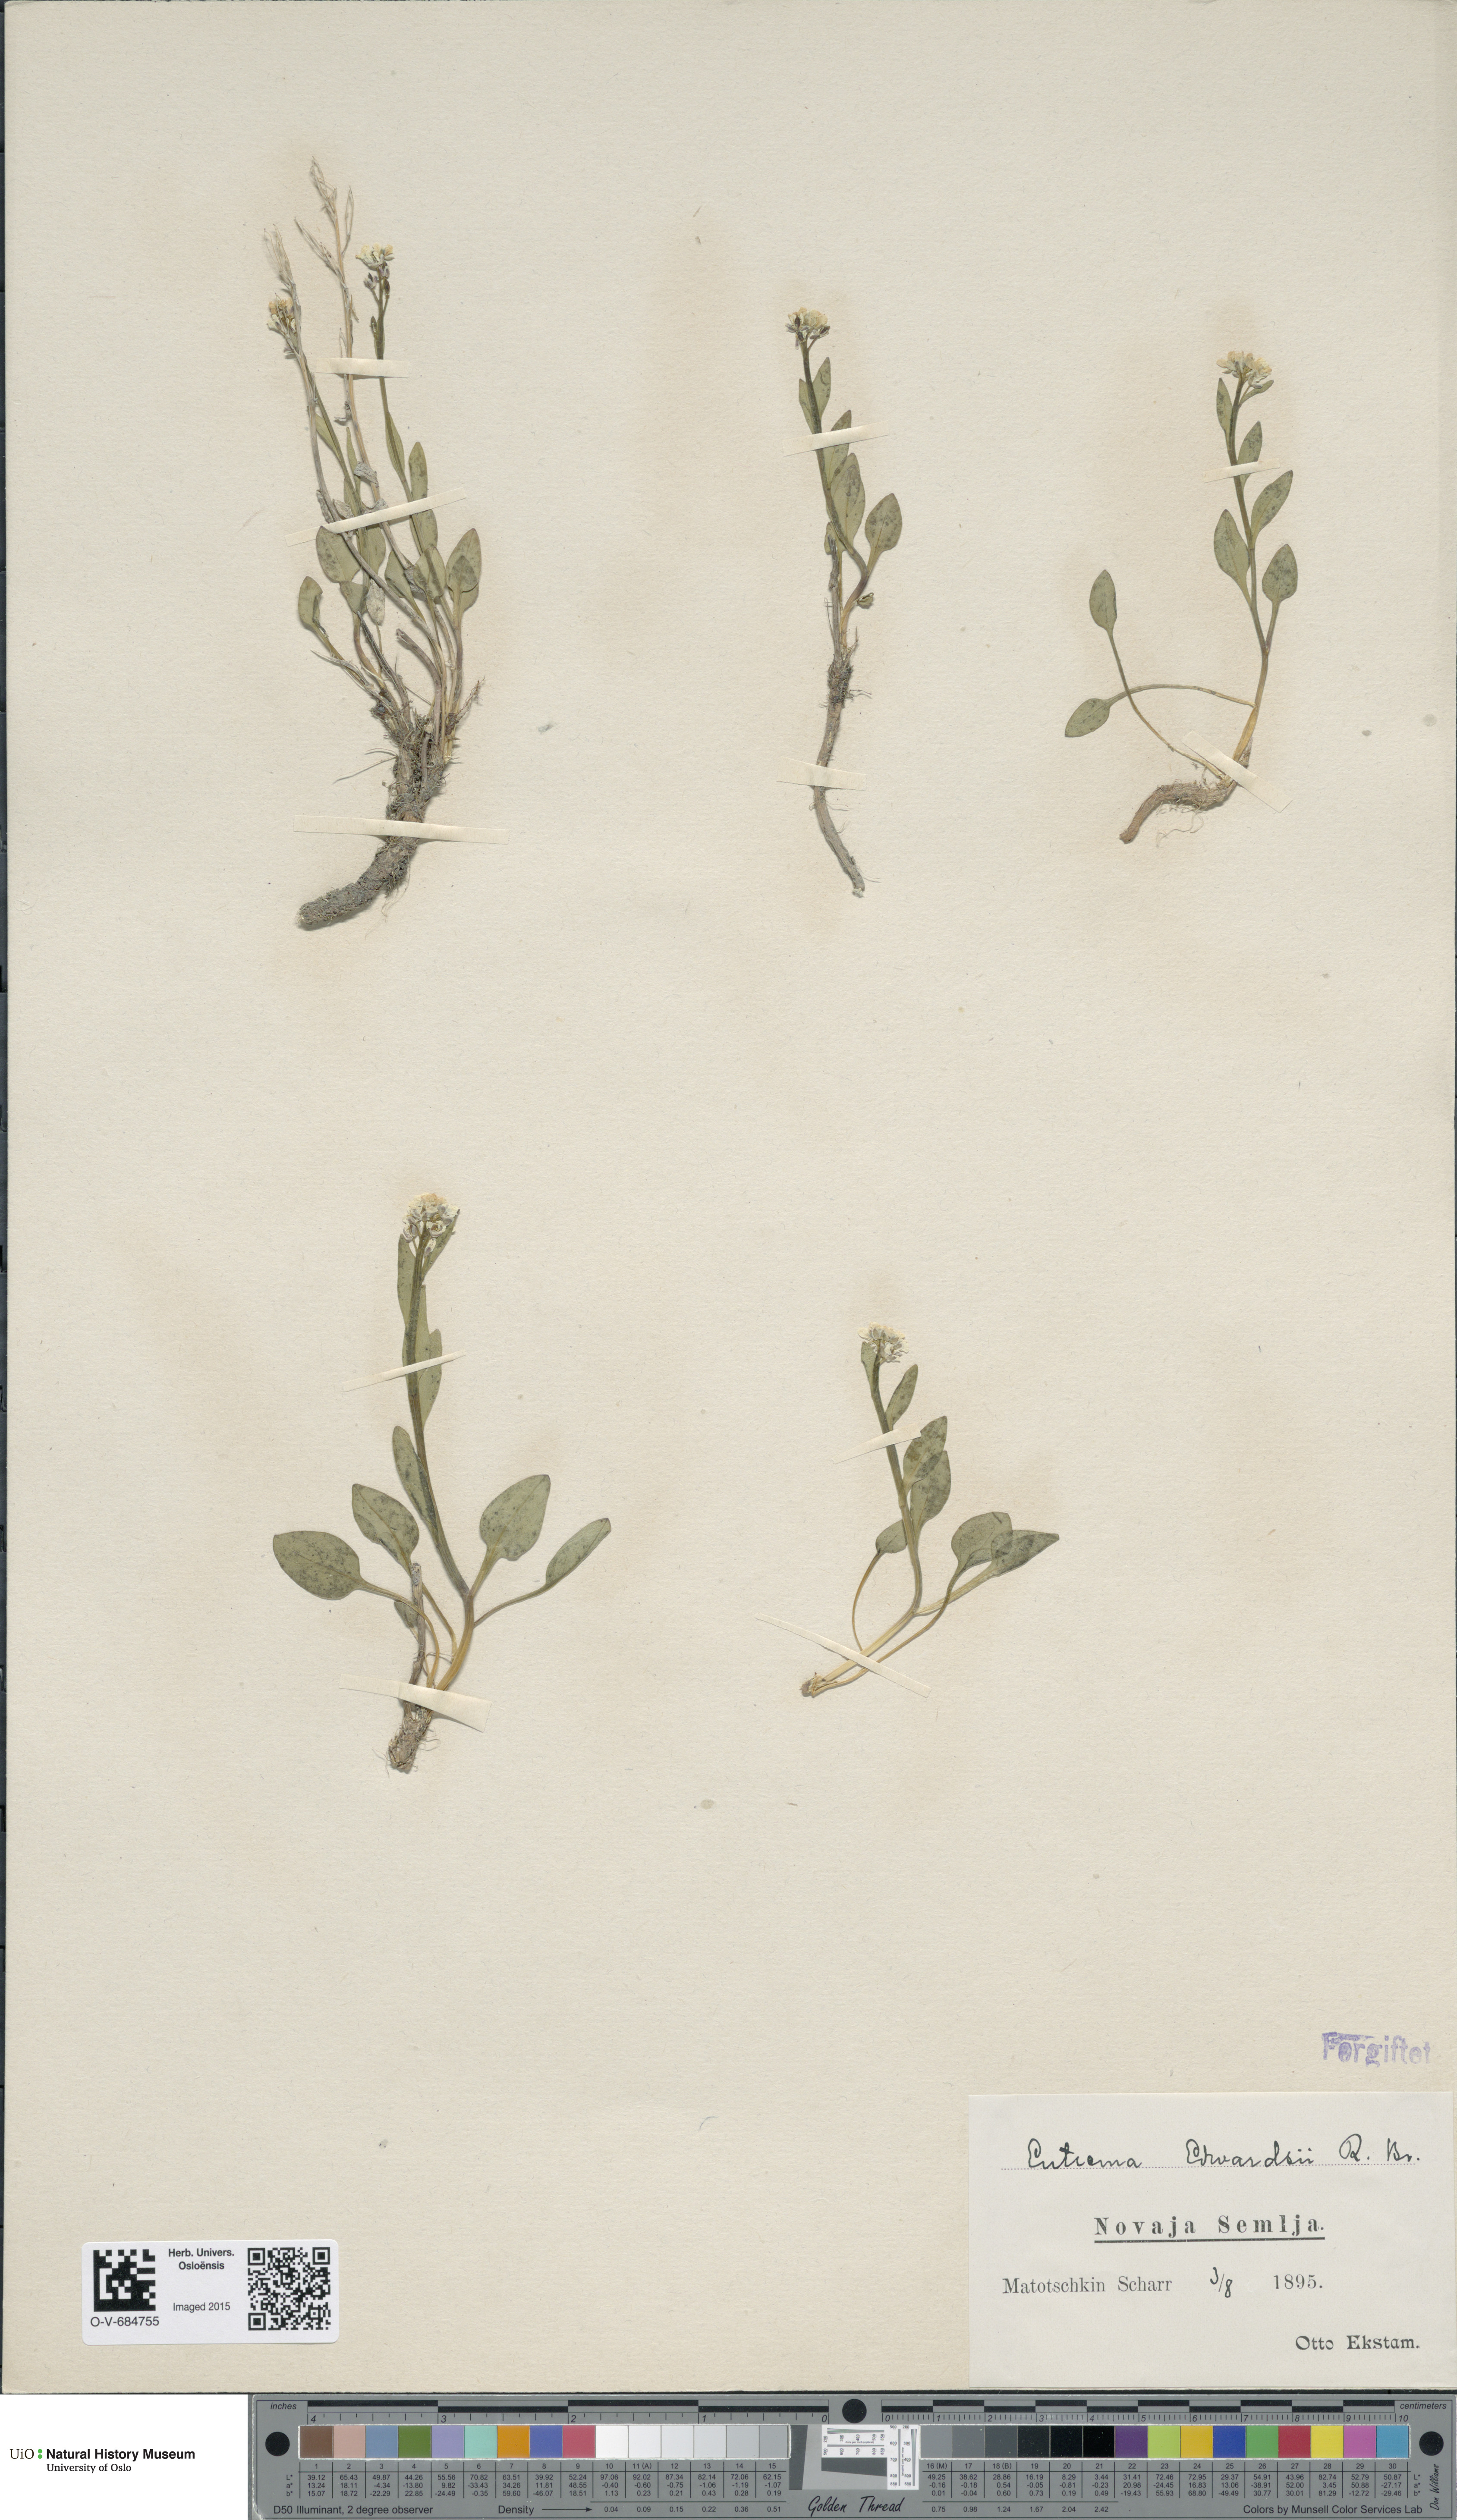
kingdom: Plantae
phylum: Tracheophyta
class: Magnoliopsida
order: Brassicales
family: Brassicaceae
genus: Eutrema
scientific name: Eutrema edwardsii
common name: Penland alpine fen mustard
